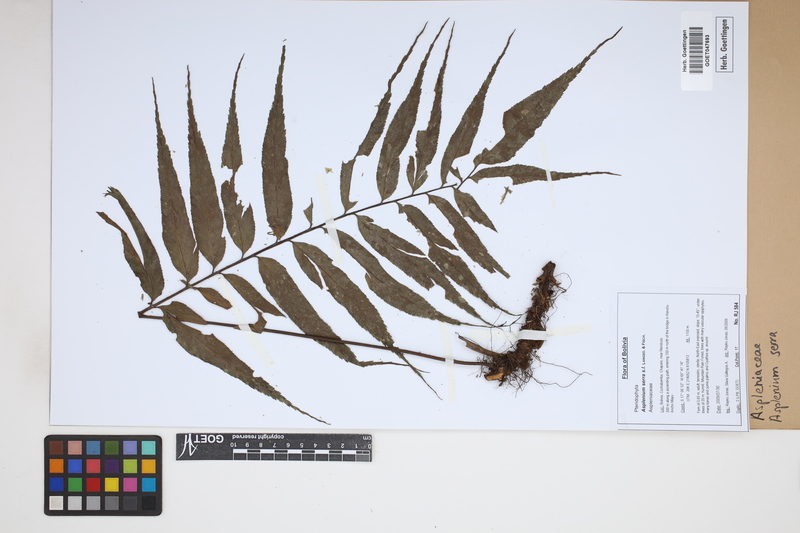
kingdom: Plantae
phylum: Tracheophyta
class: Polypodiopsida
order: Polypodiales
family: Aspleniaceae
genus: Asplenium
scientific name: Asplenium serra
